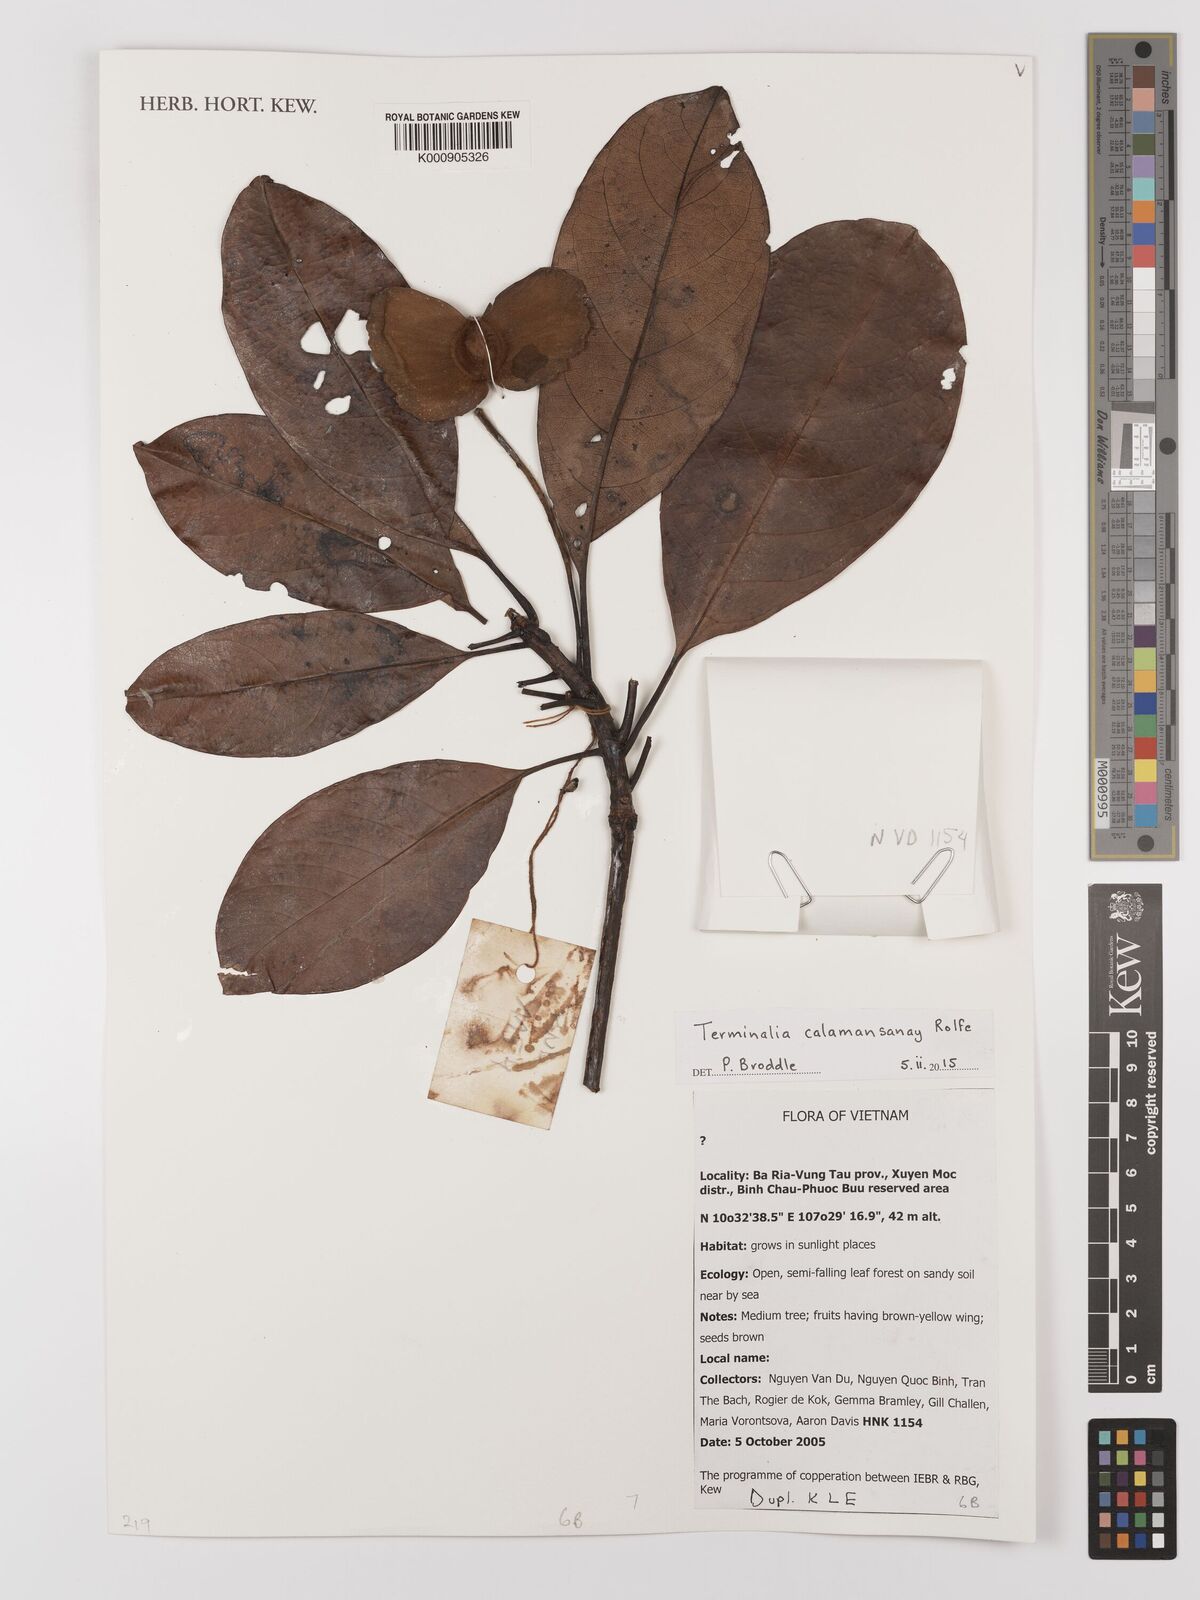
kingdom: Plantae
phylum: Tracheophyta
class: Magnoliopsida
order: Myrtales
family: Combretaceae
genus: Terminalia
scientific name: Terminalia calamansanai
